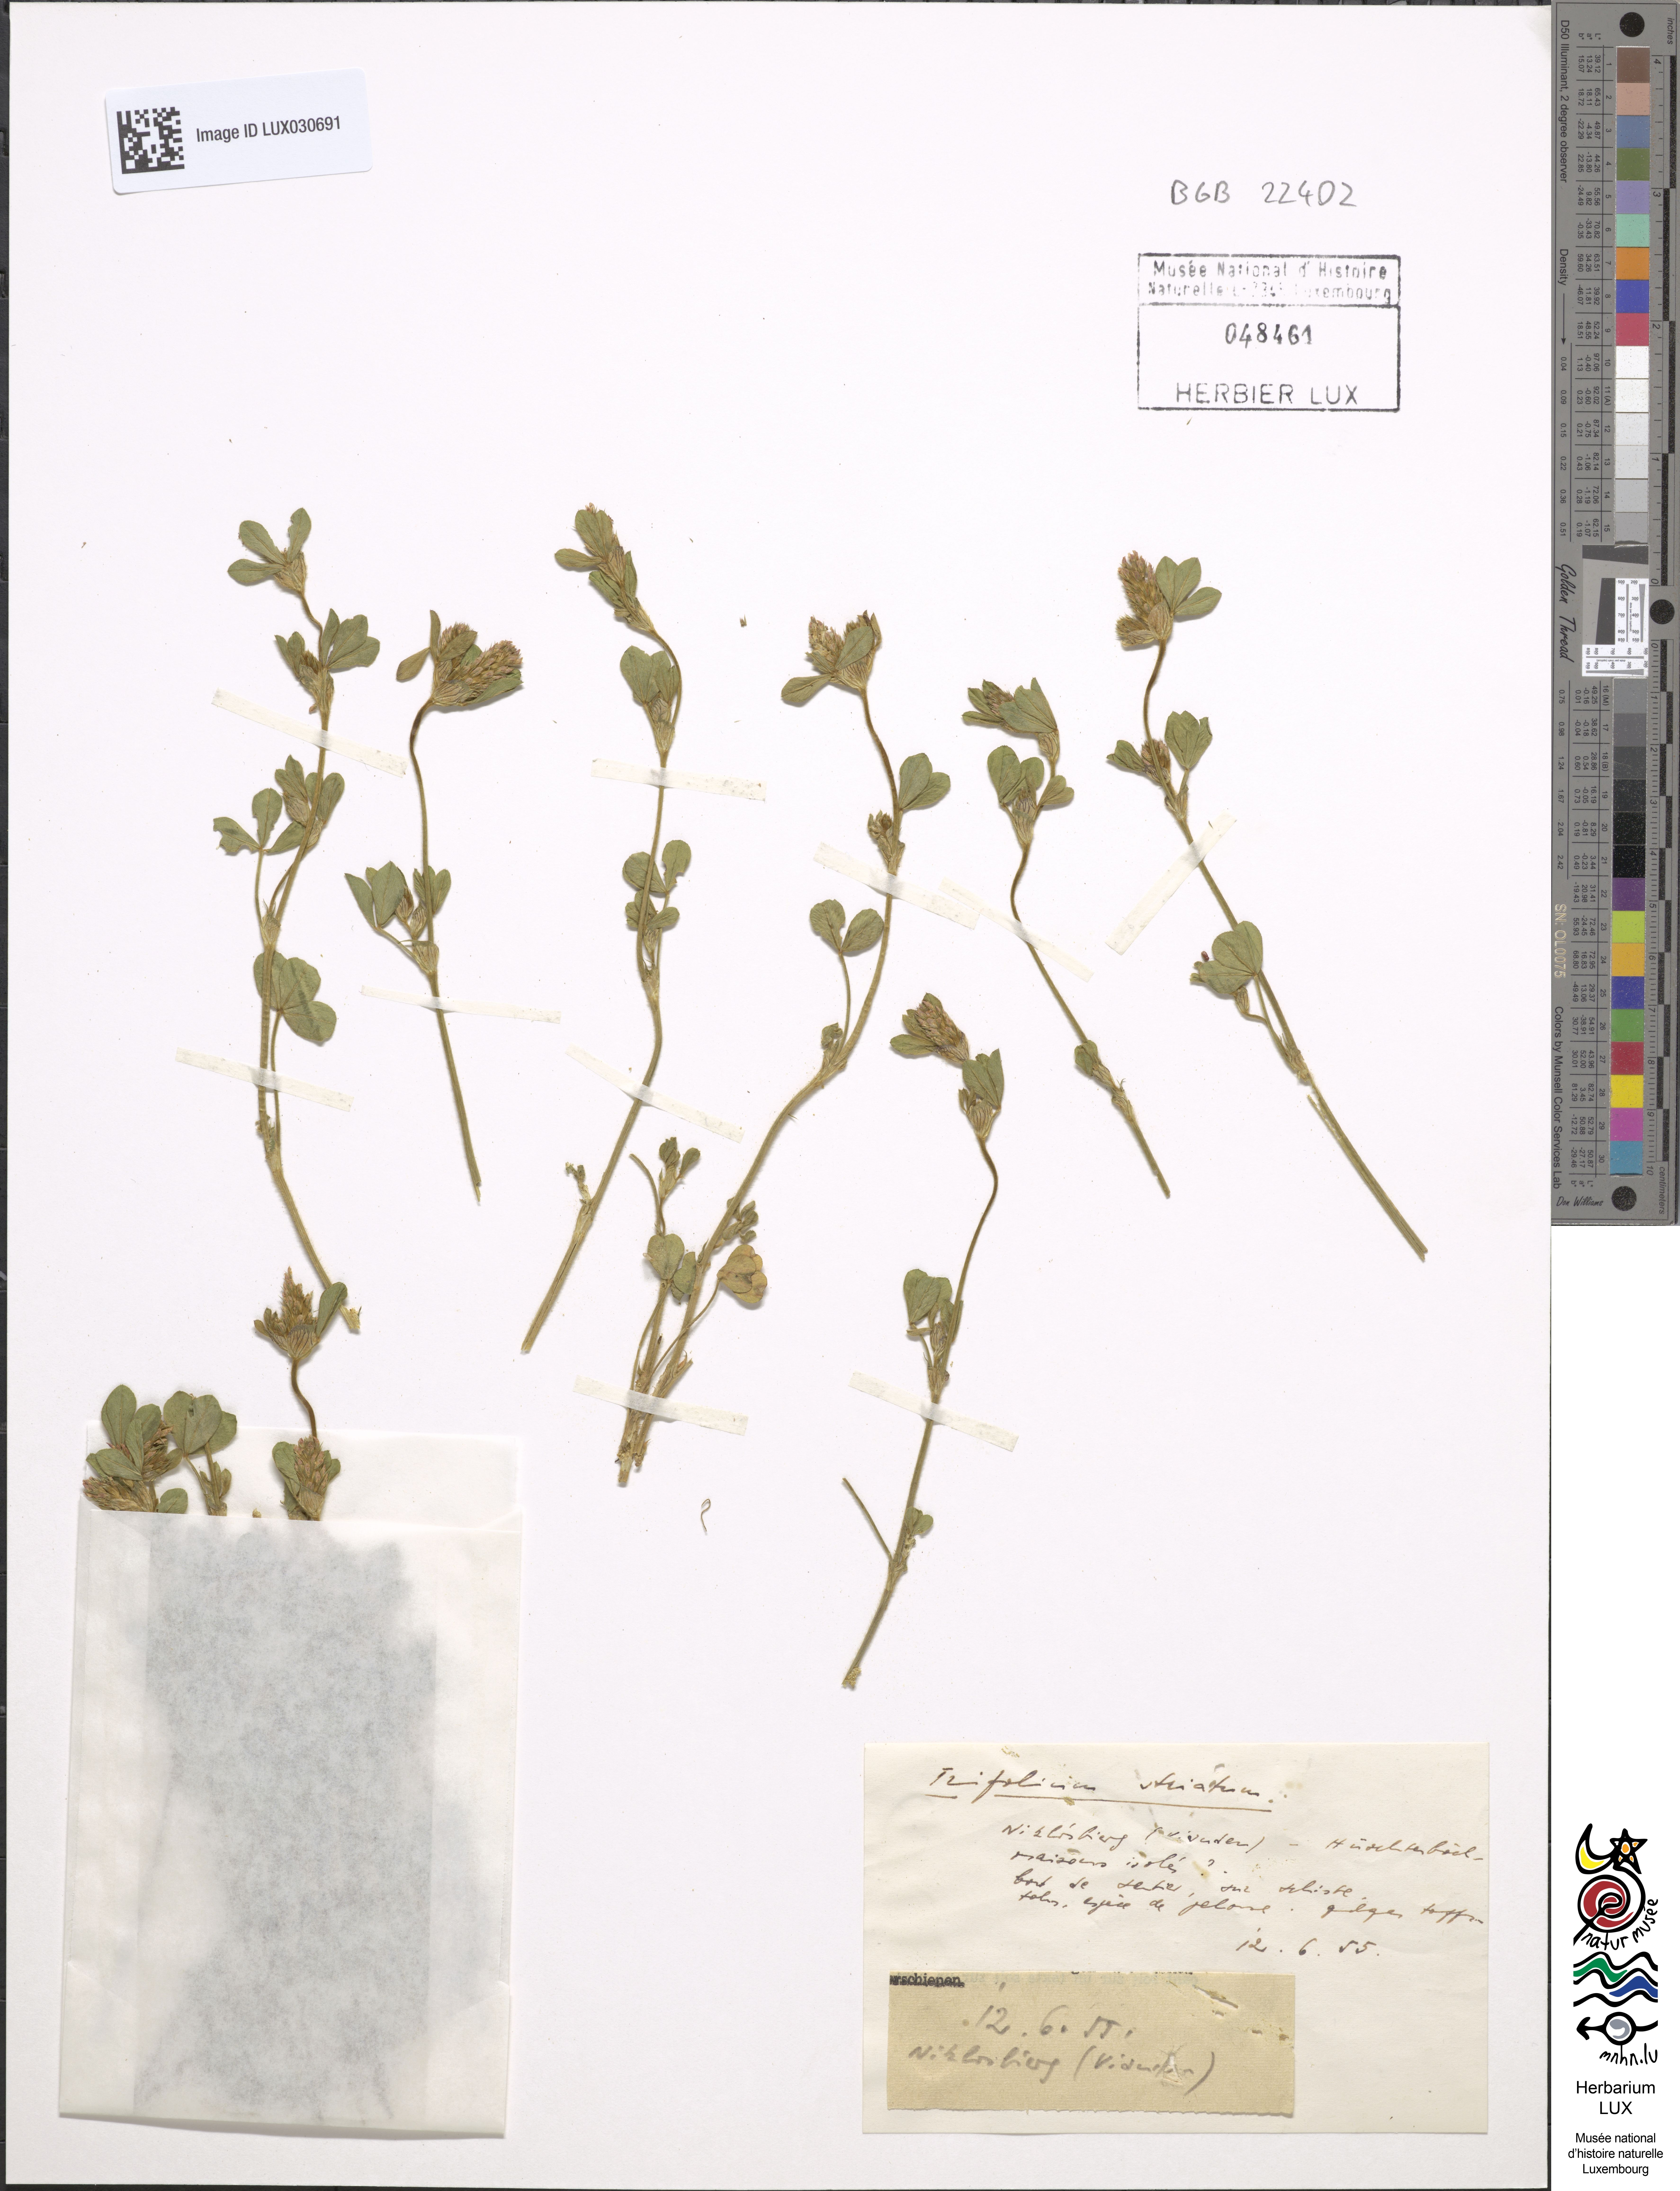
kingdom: Plantae
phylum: Tracheophyta
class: Magnoliopsida
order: Fabales
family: Fabaceae
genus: Trifolium
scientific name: Trifolium striatum
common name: Knotted clover
